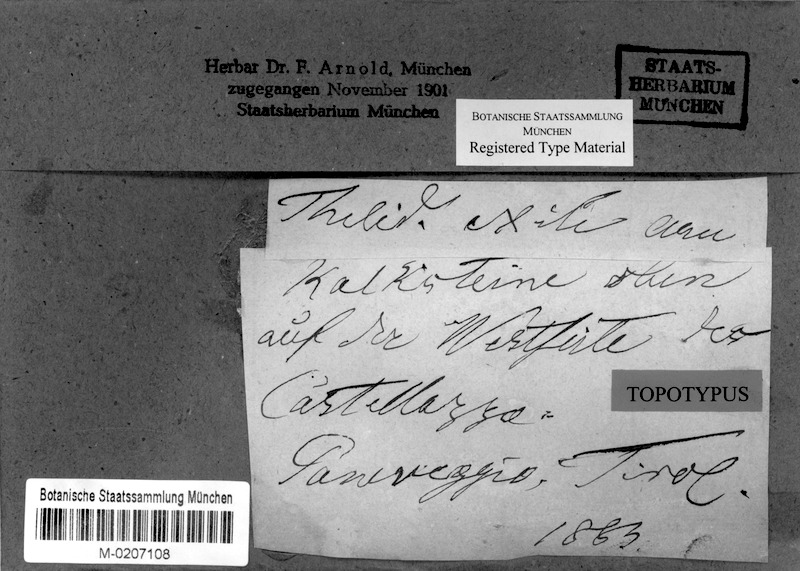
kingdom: Fungi
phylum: Ascomycota
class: Eurotiomycetes
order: Verrucariales
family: Verrucariaceae
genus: Thelidium
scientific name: Thelidium minutulum
